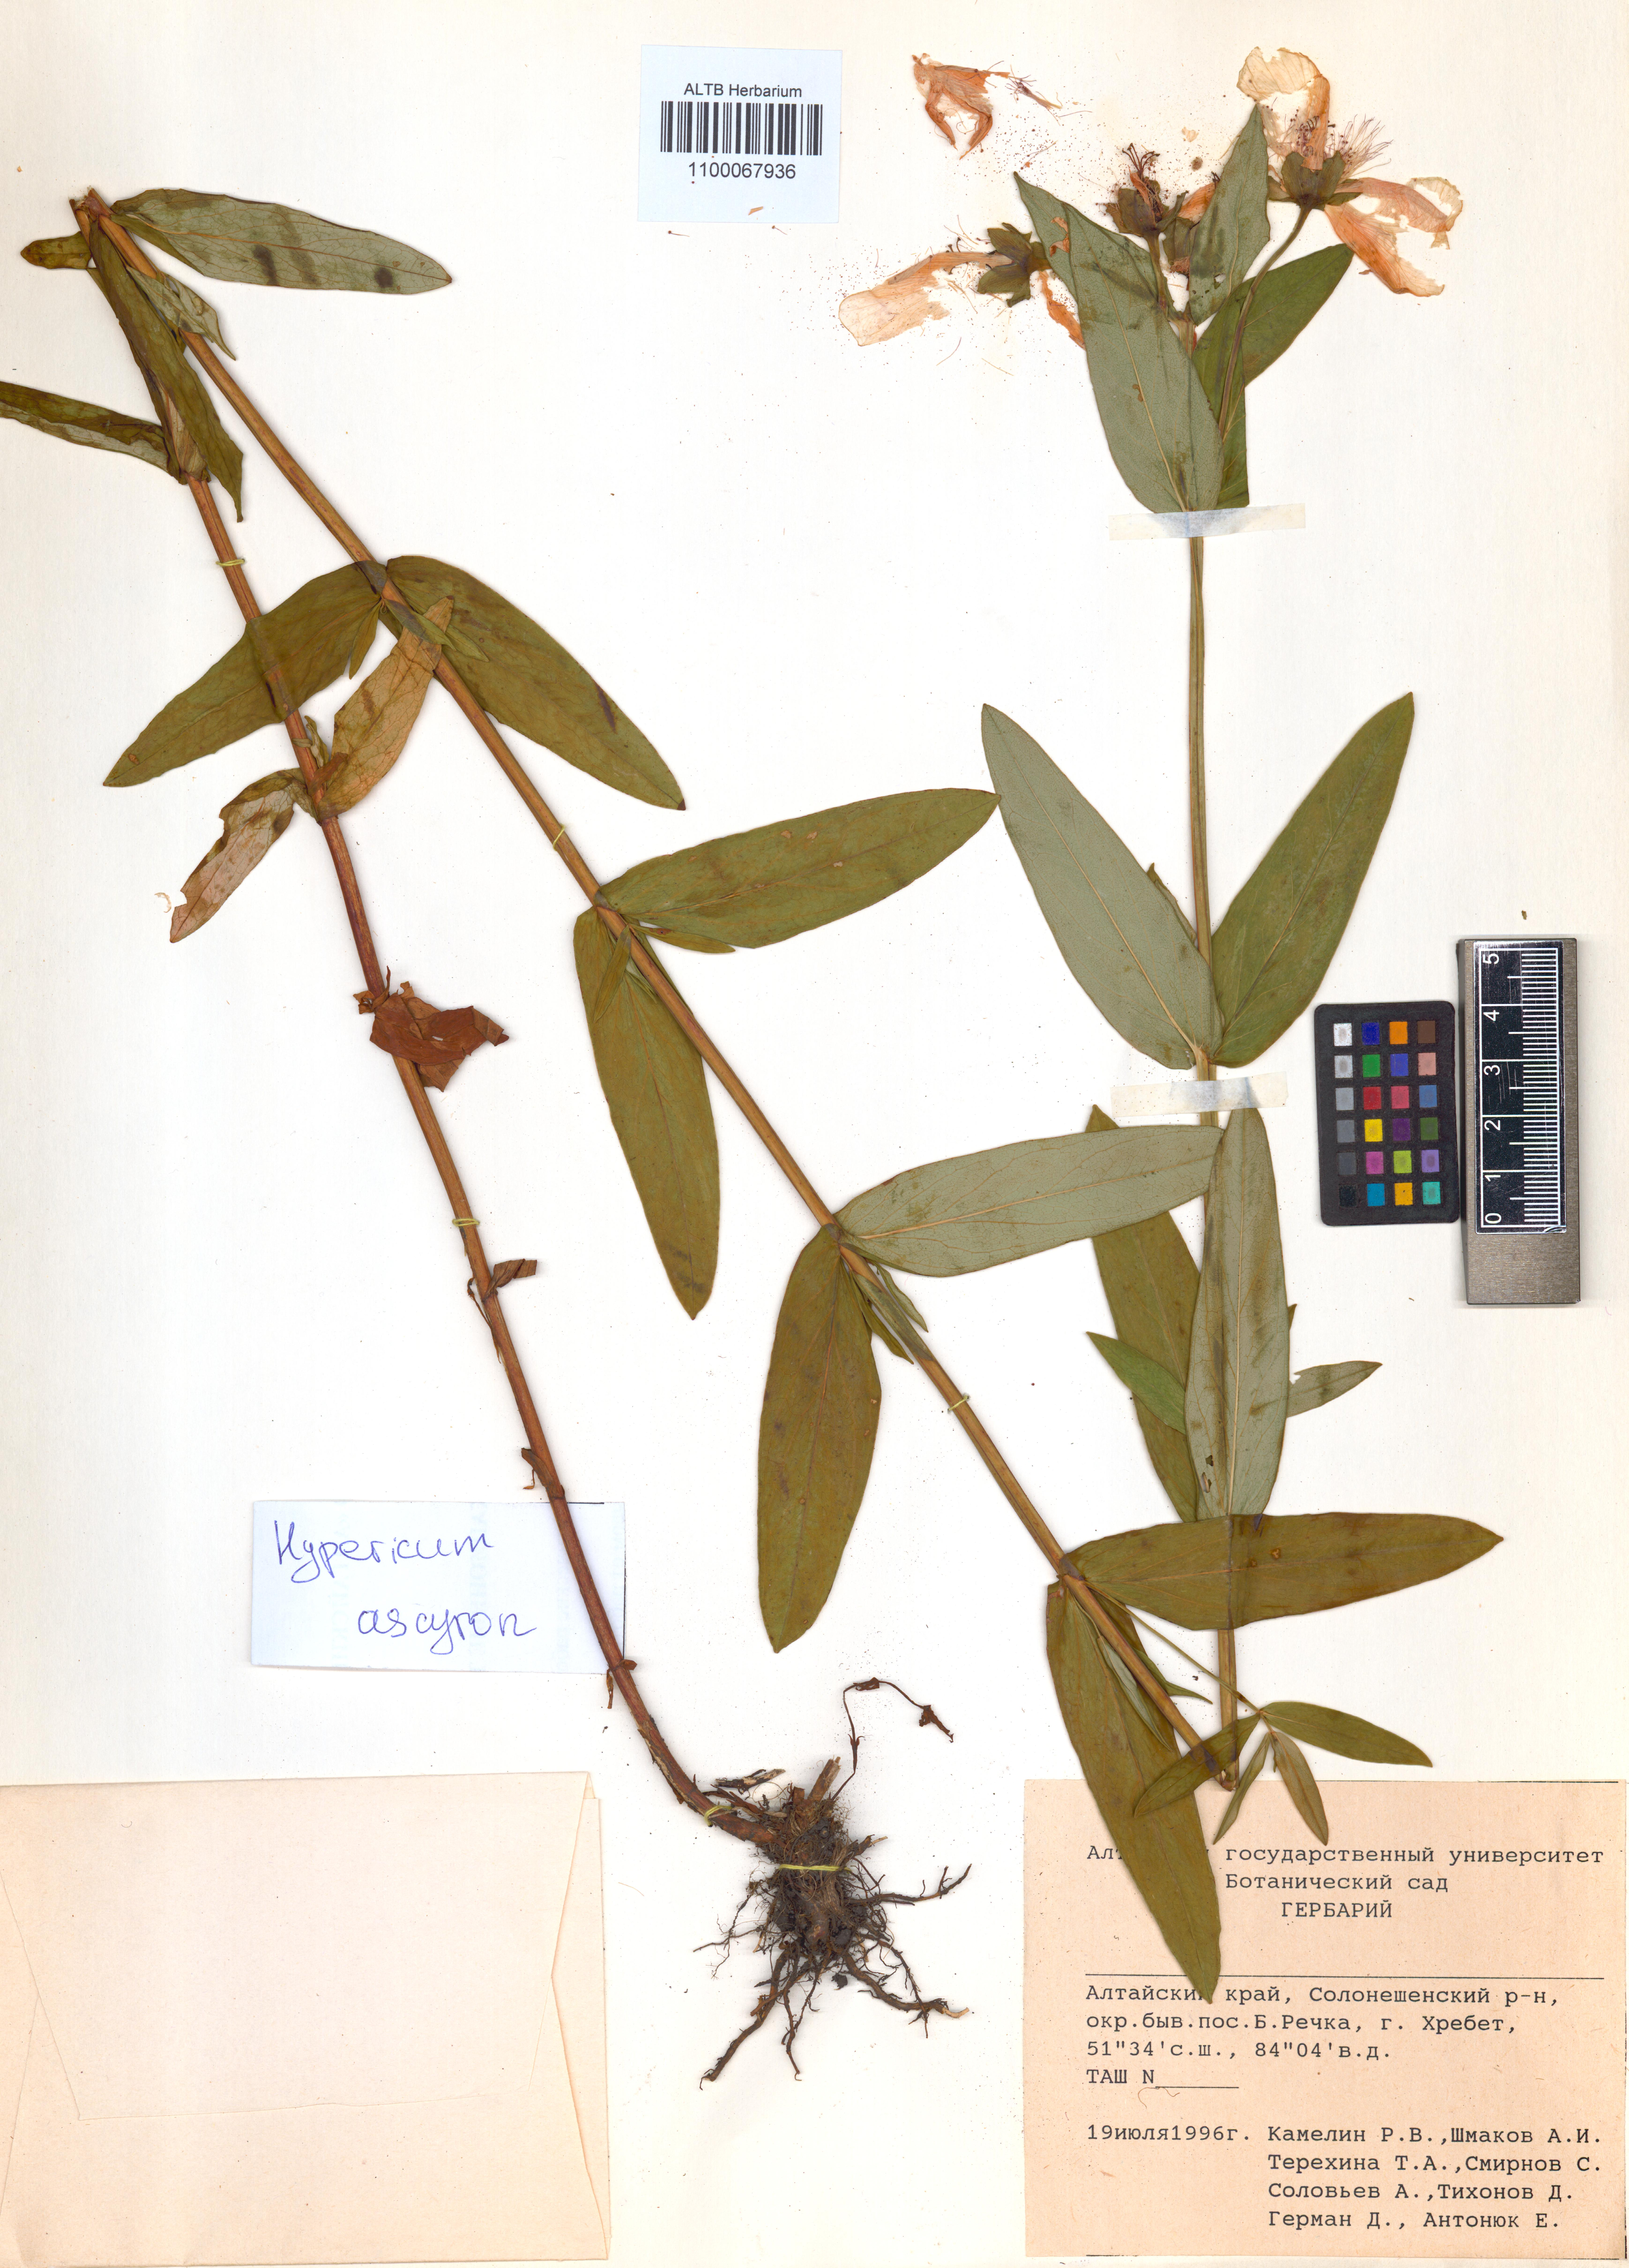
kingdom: Plantae
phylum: Tracheophyta
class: Magnoliopsida
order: Malpighiales
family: Hypericaceae
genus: Hypericum
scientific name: Hypericum ascyron
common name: Giant st. john's-wort
